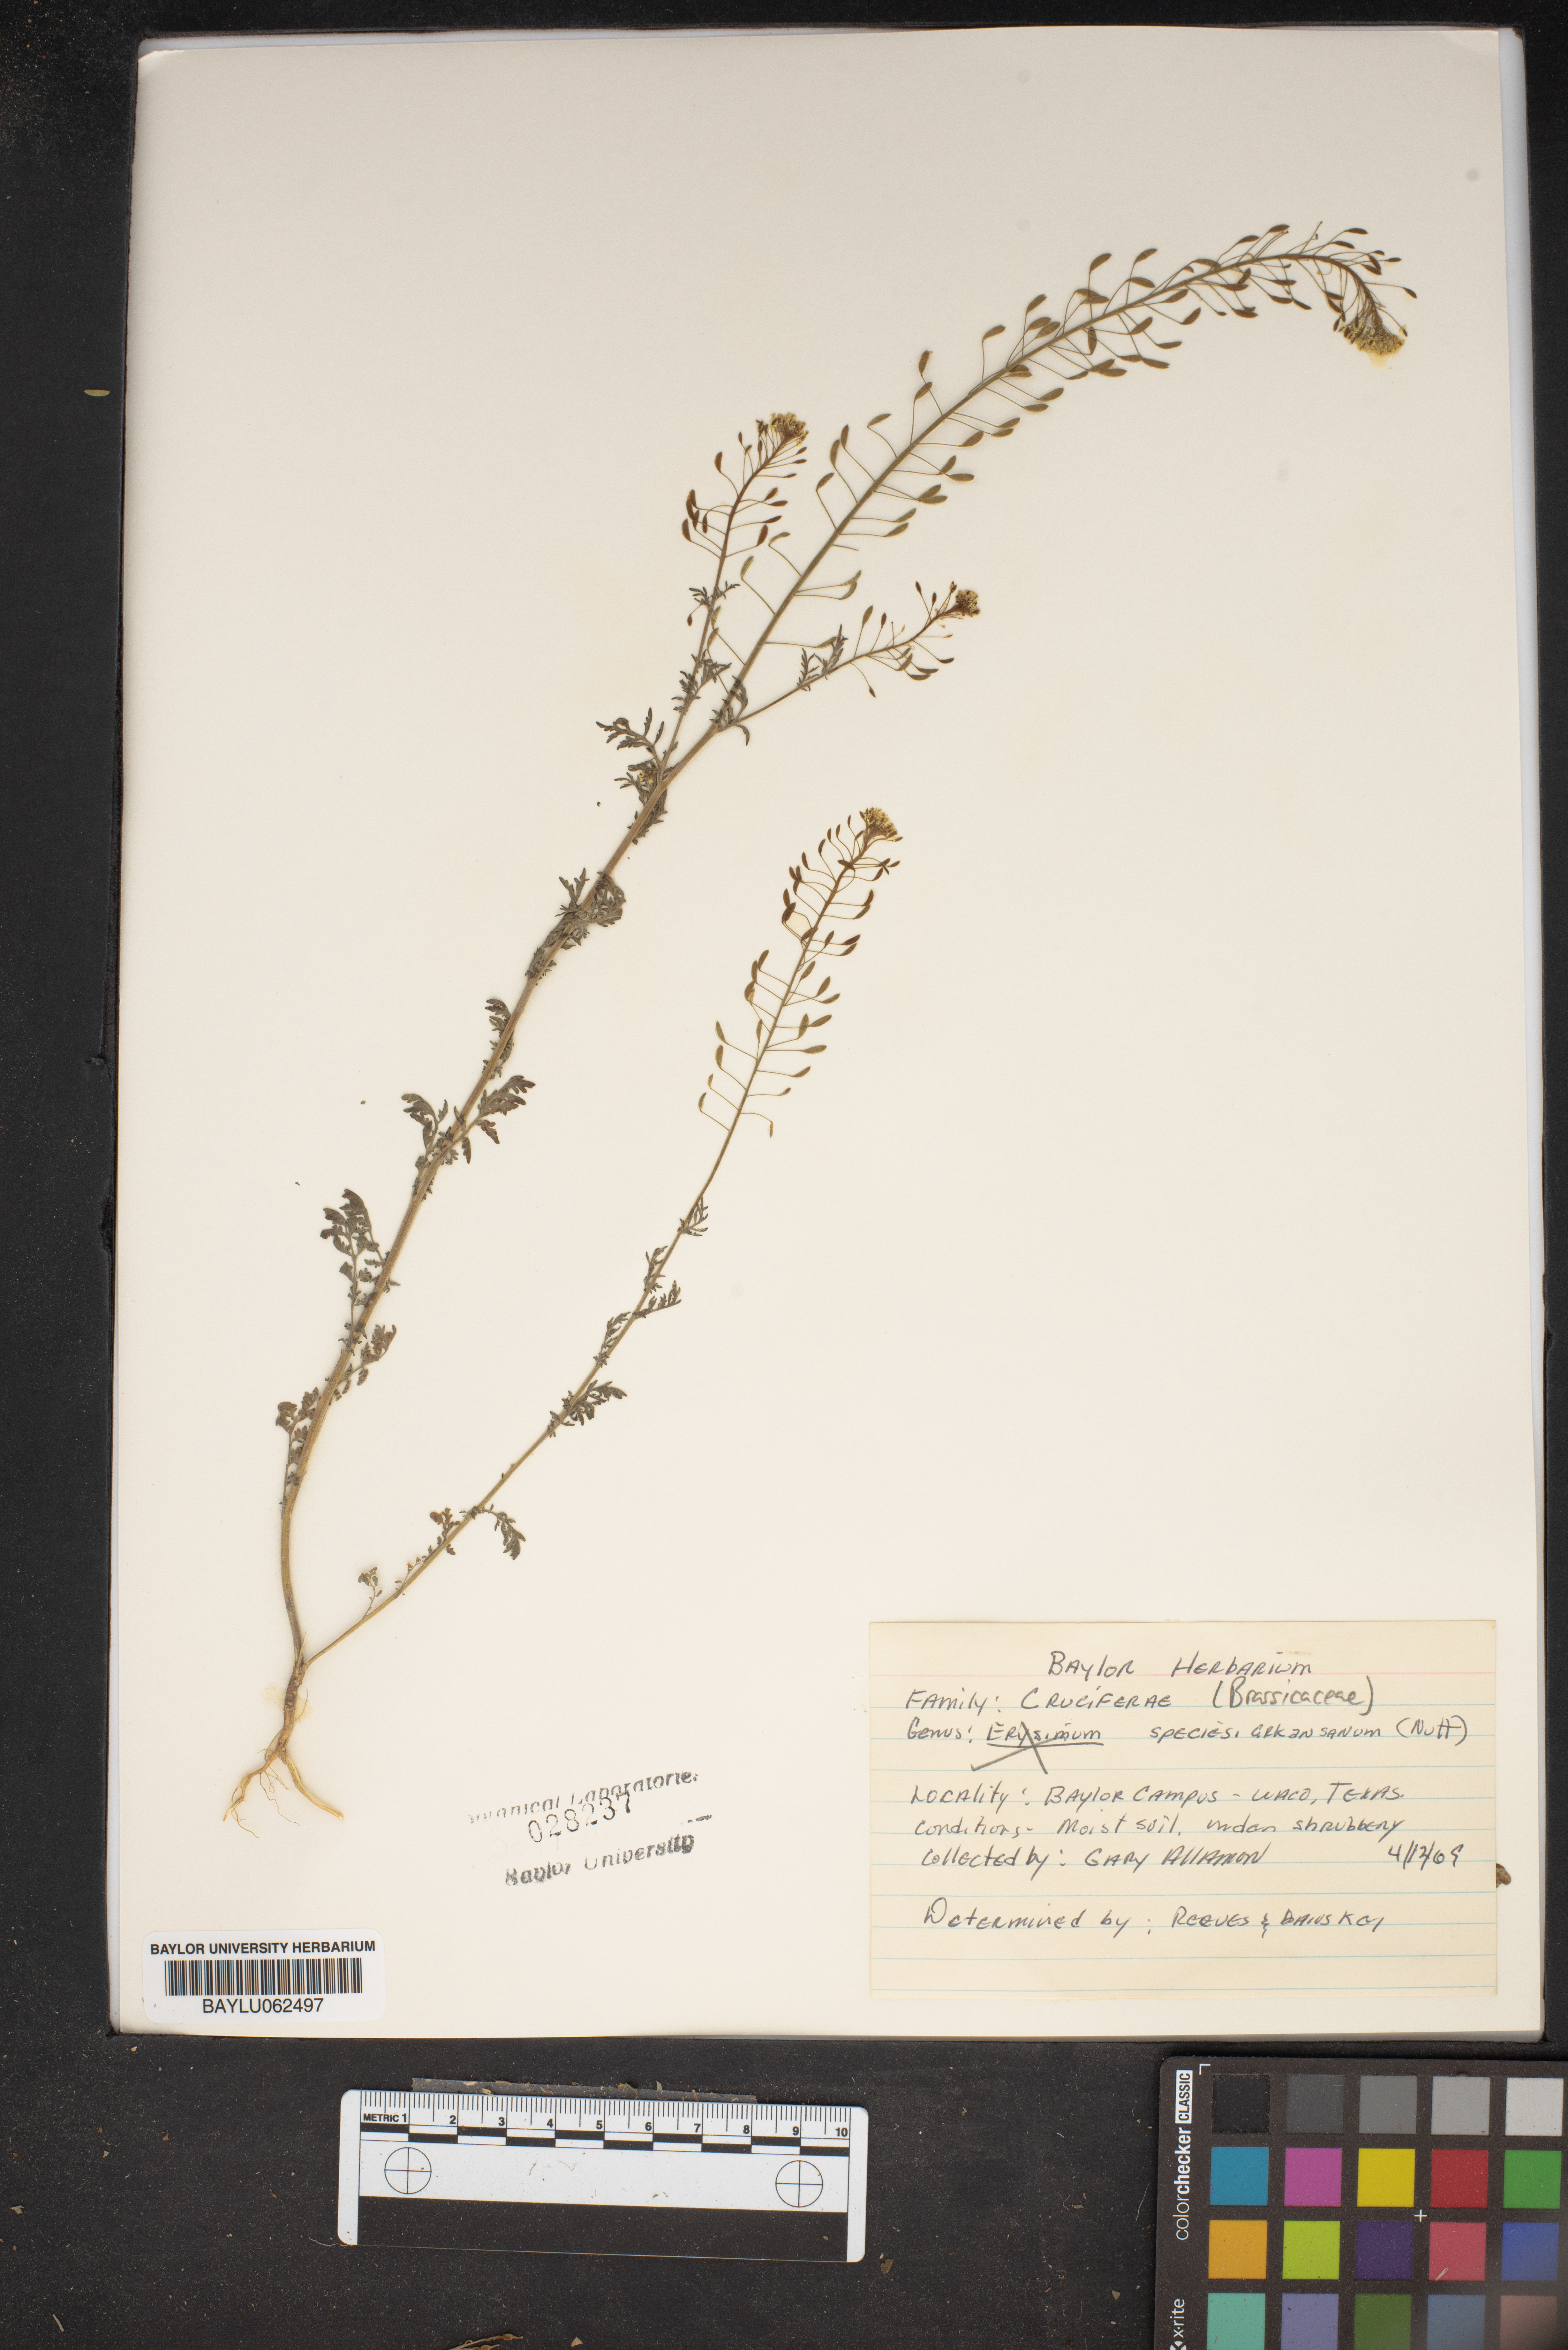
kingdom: Plantae
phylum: Tracheophyta
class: Magnoliopsida
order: Brassicales
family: Brassicaceae
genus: Erysimum
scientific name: Erysimum arkansanum
